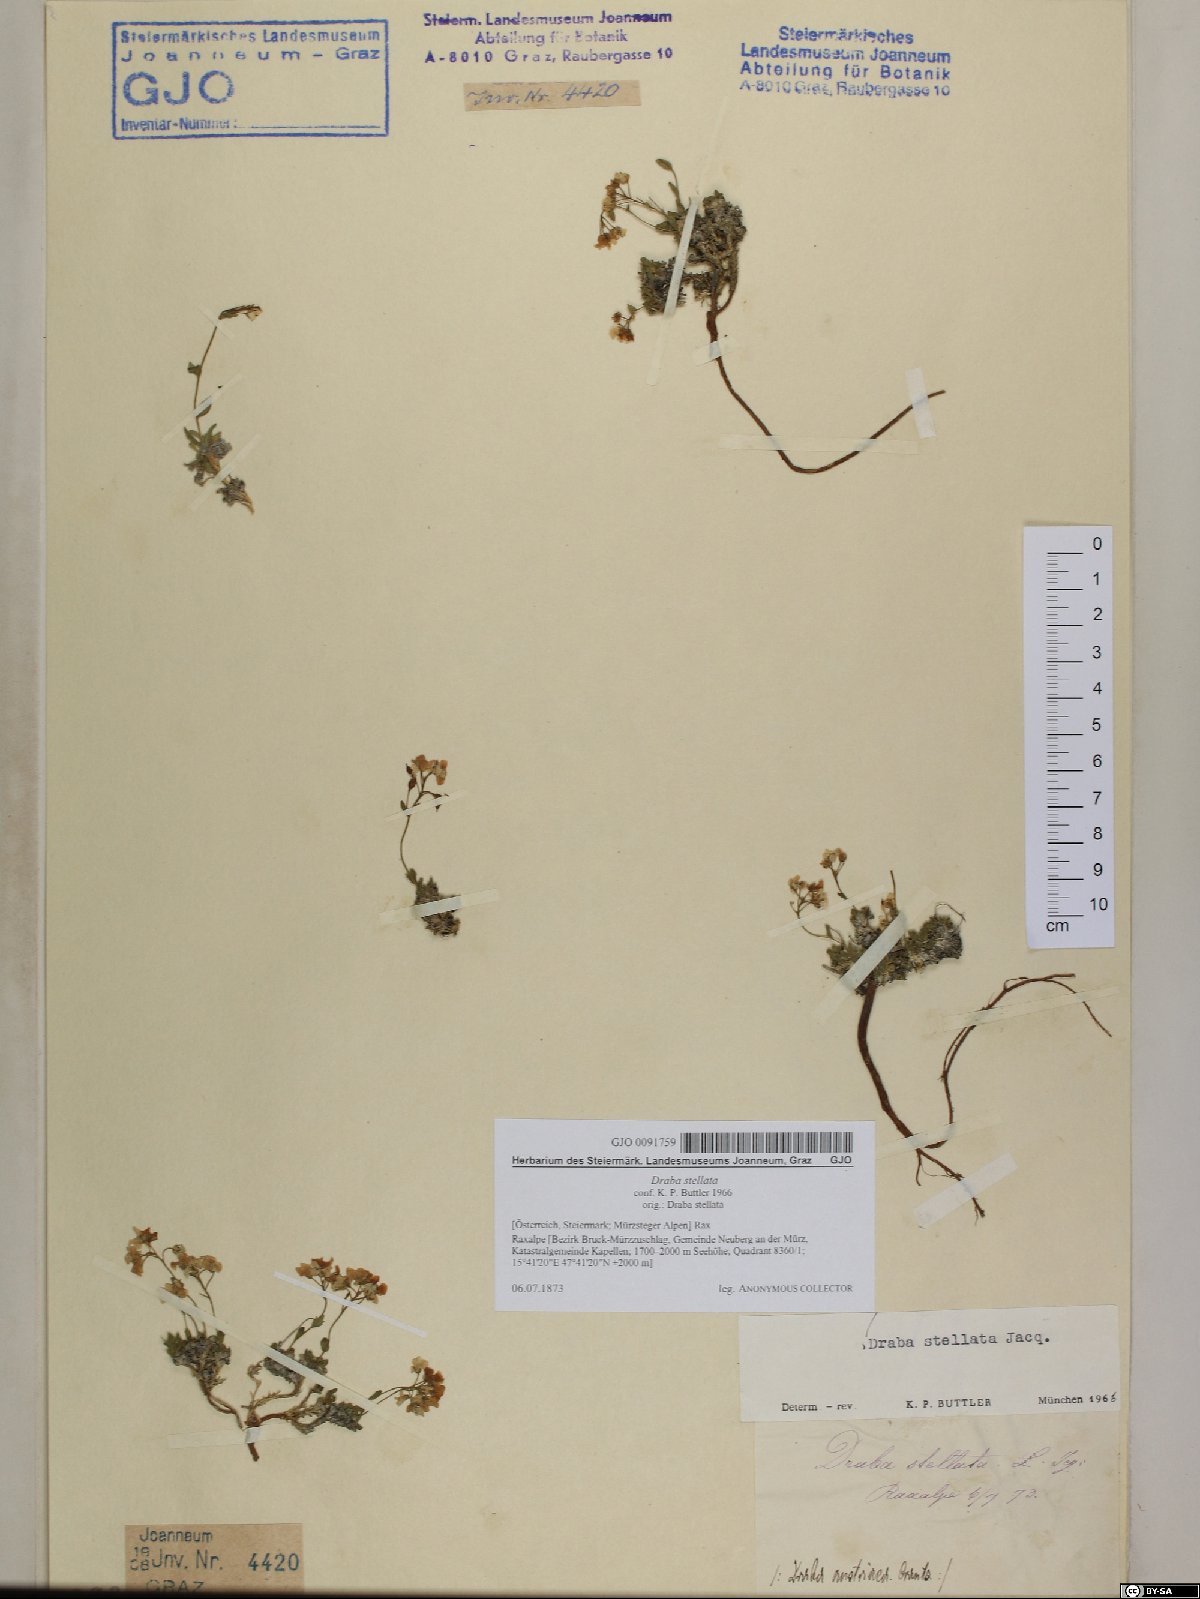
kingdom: Plantae
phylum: Tracheophyta
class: Magnoliopsida
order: Brassicales
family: Brassicaceae
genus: Draba
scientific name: Draba stellata
